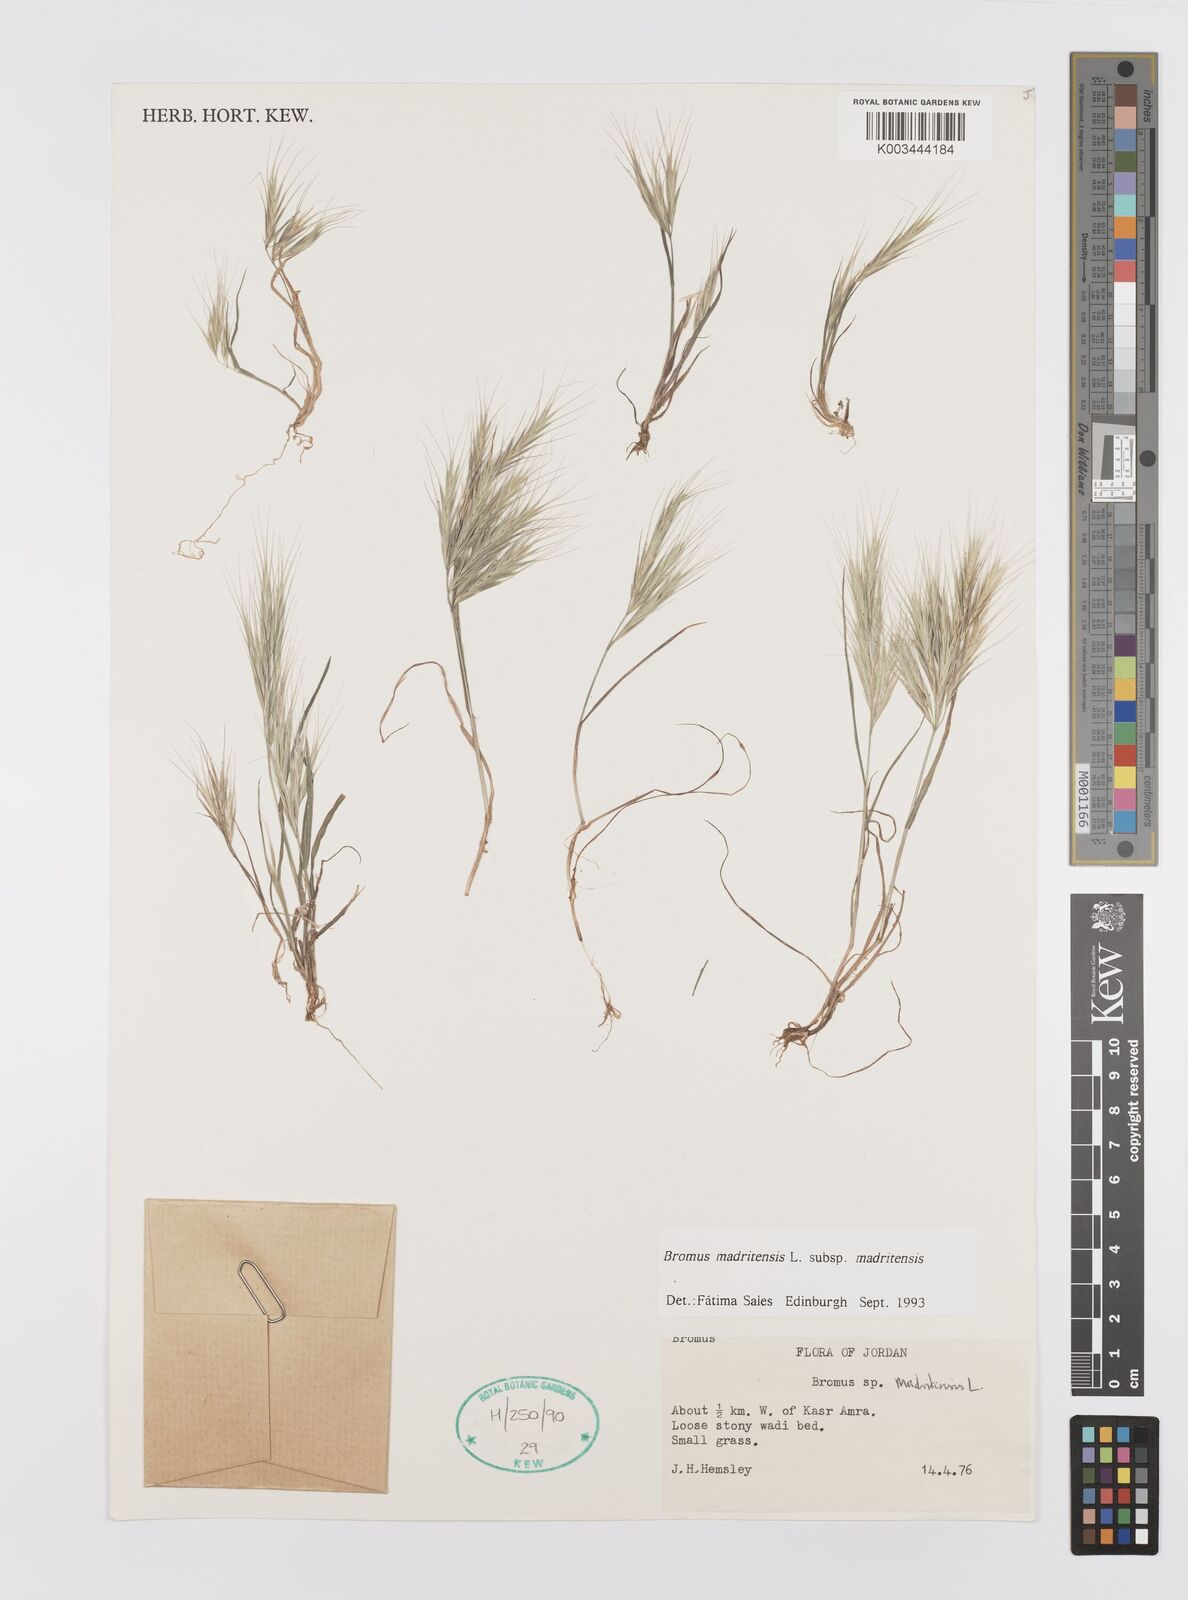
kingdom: Plantae
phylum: Tracheophyta
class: Liliopsida
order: Poales
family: Poaceae
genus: Bromus
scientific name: Bromus madritensis
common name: Compact brome
